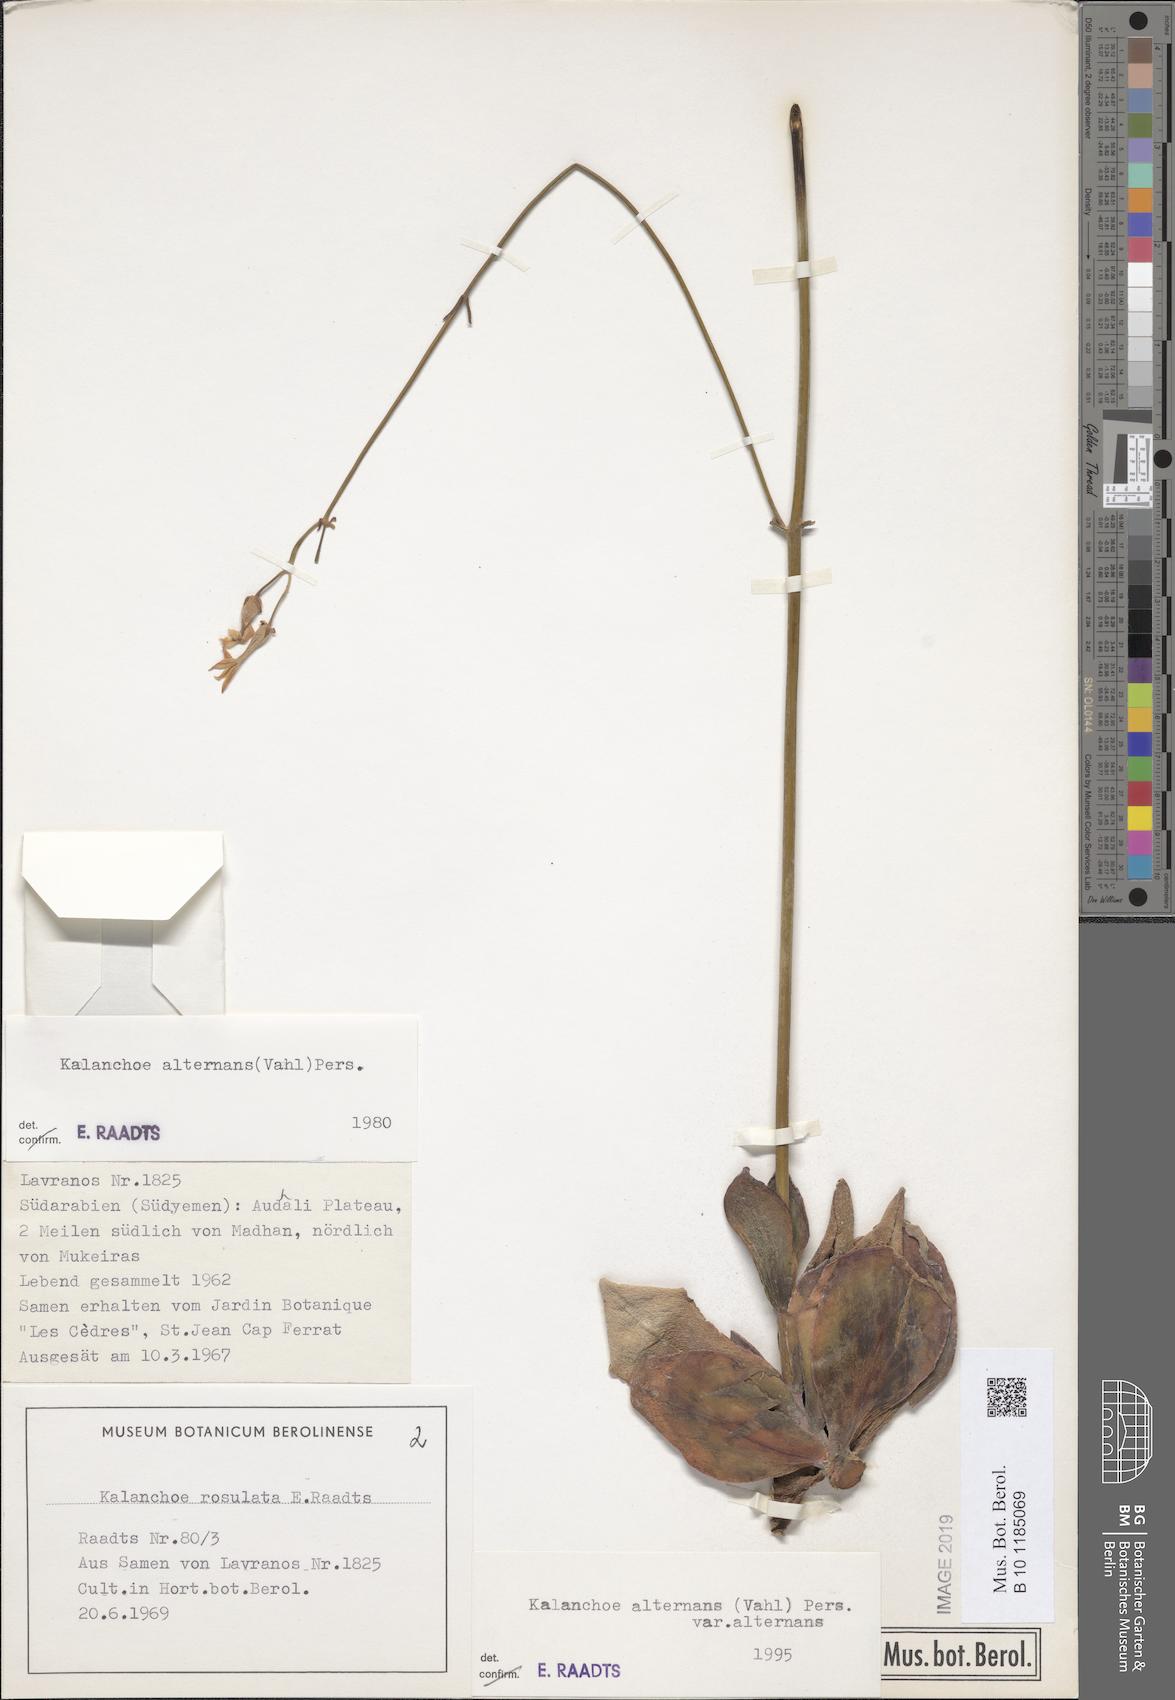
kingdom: Plantae
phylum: Tracheophyta
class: Magnoliopsida
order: Saxifragales
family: Crassulaceae
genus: Kalanchoe
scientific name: Kalanchoe alternans
